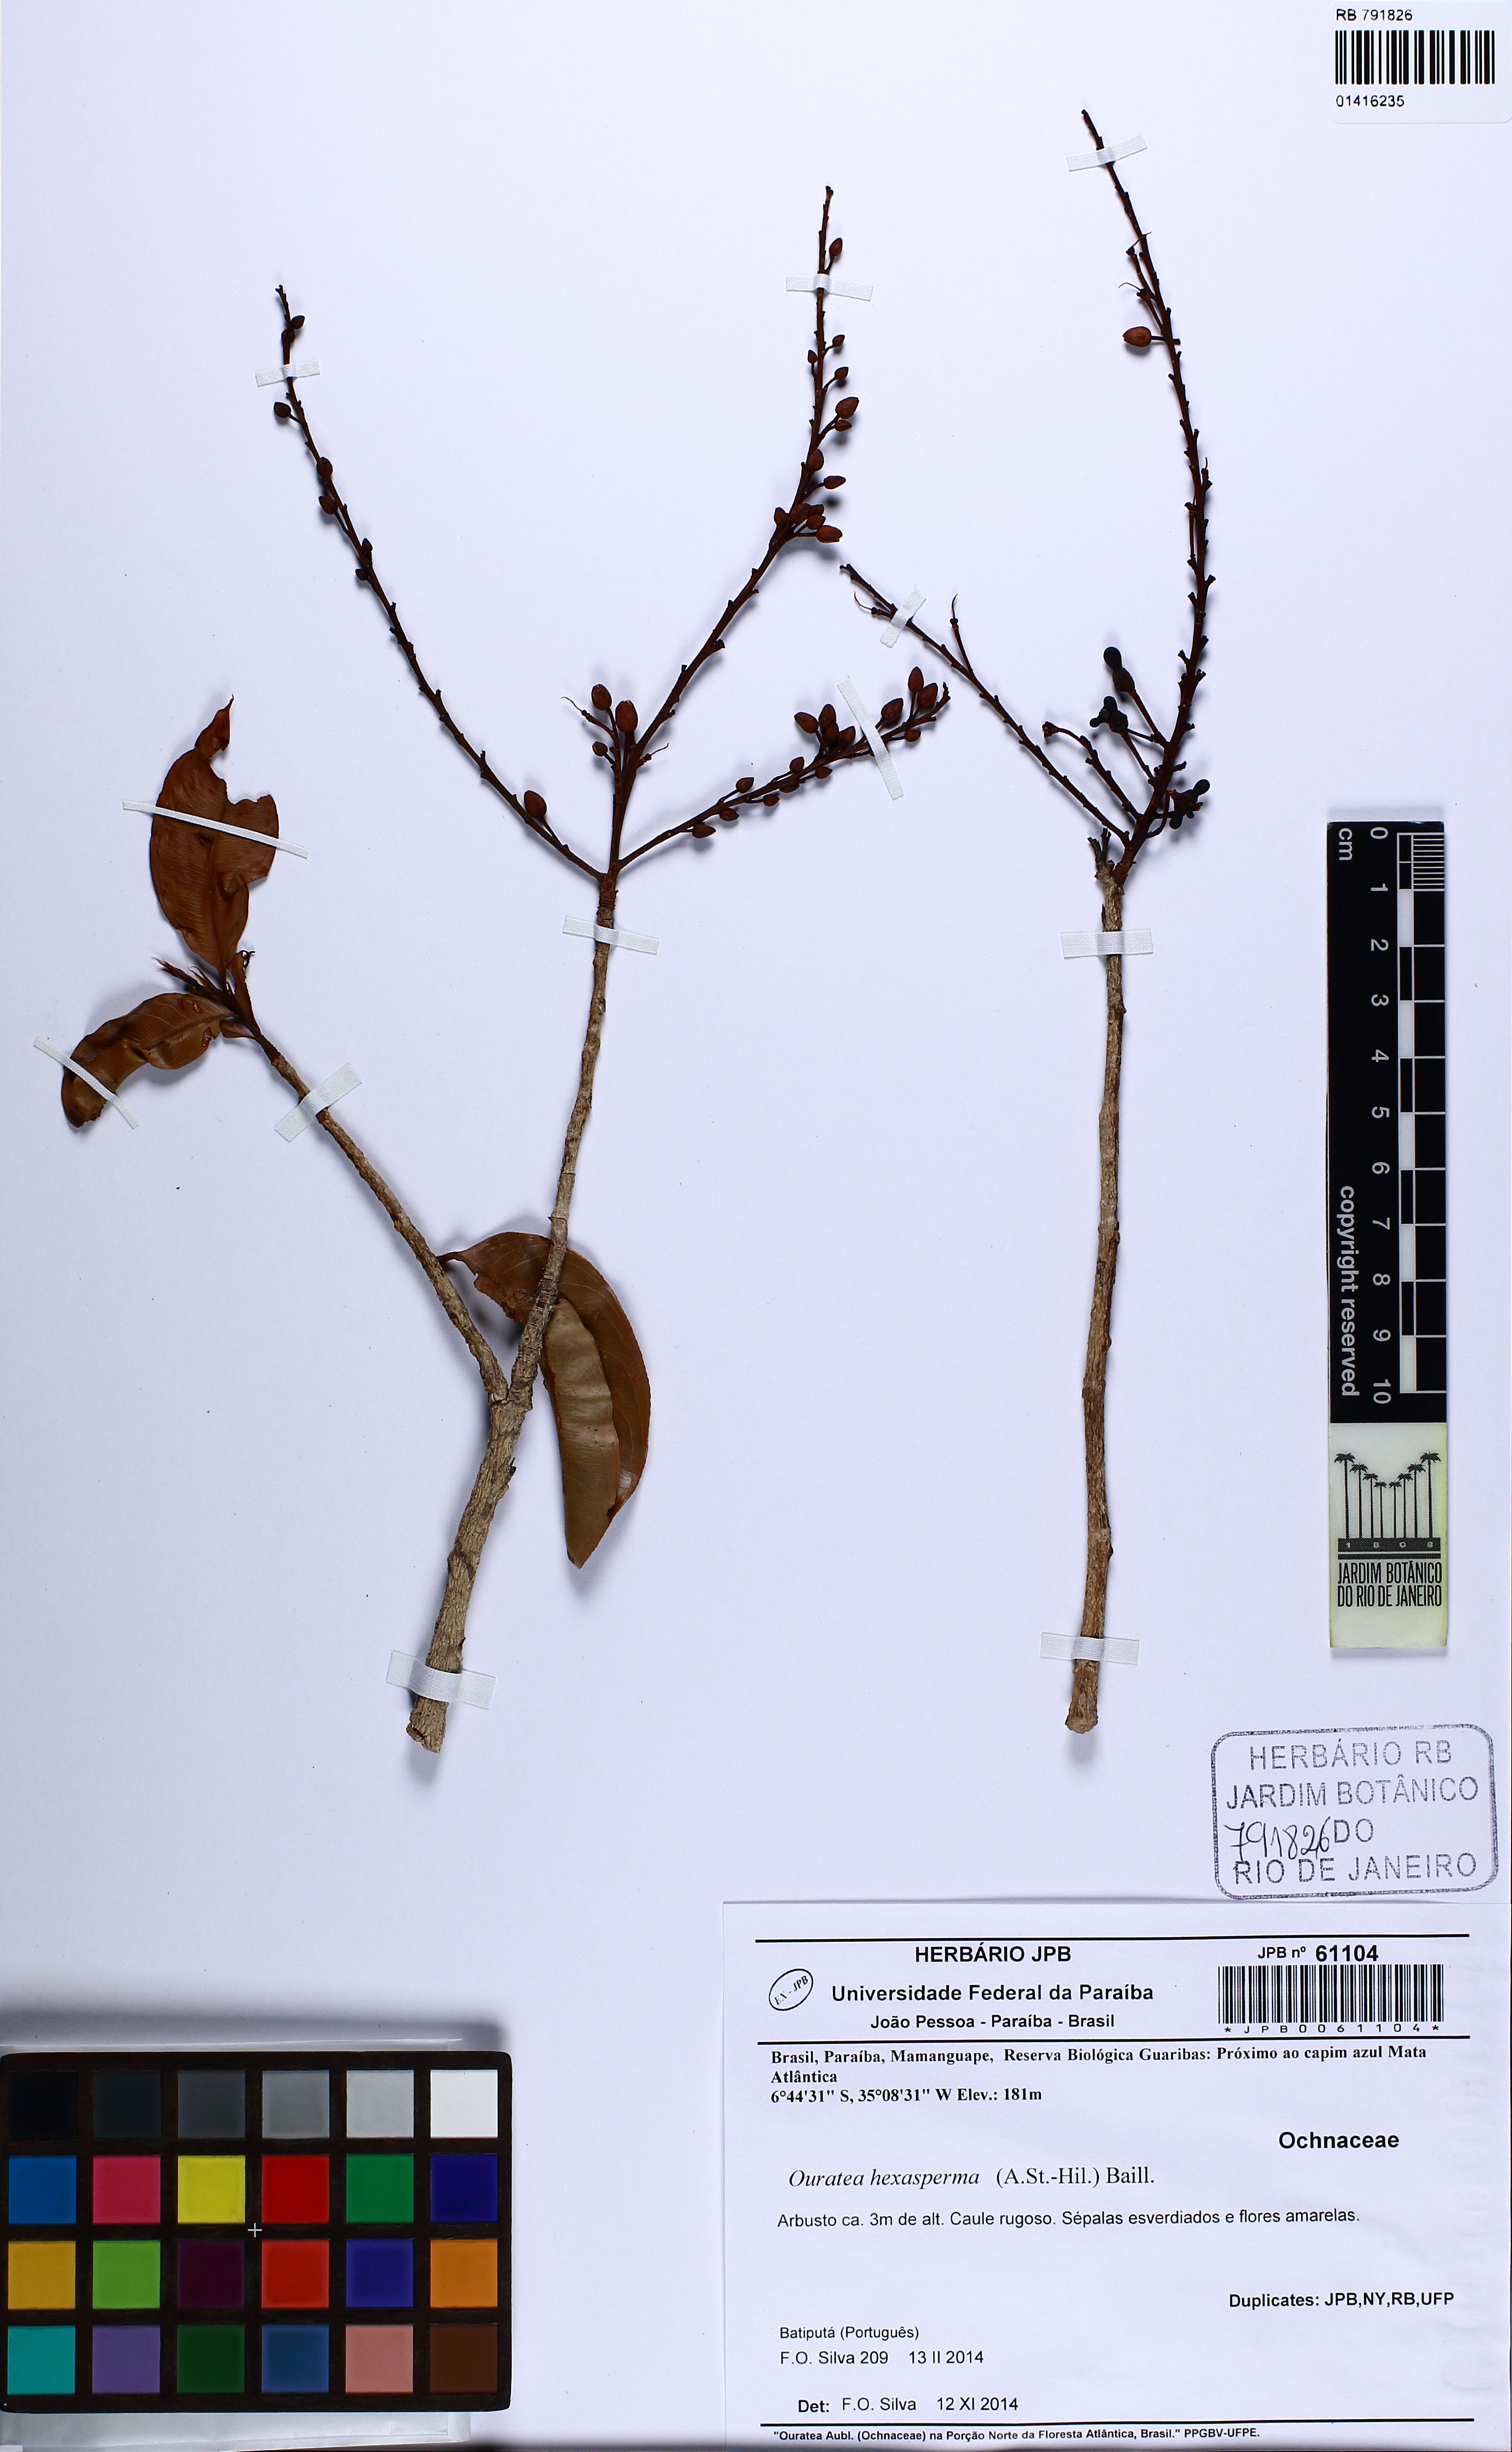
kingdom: Plantae
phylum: Tracheophyta
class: Magnoliopsida
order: Malpighiales
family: Ochnaceae
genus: Ouratea
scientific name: Ouratea hexasperma
